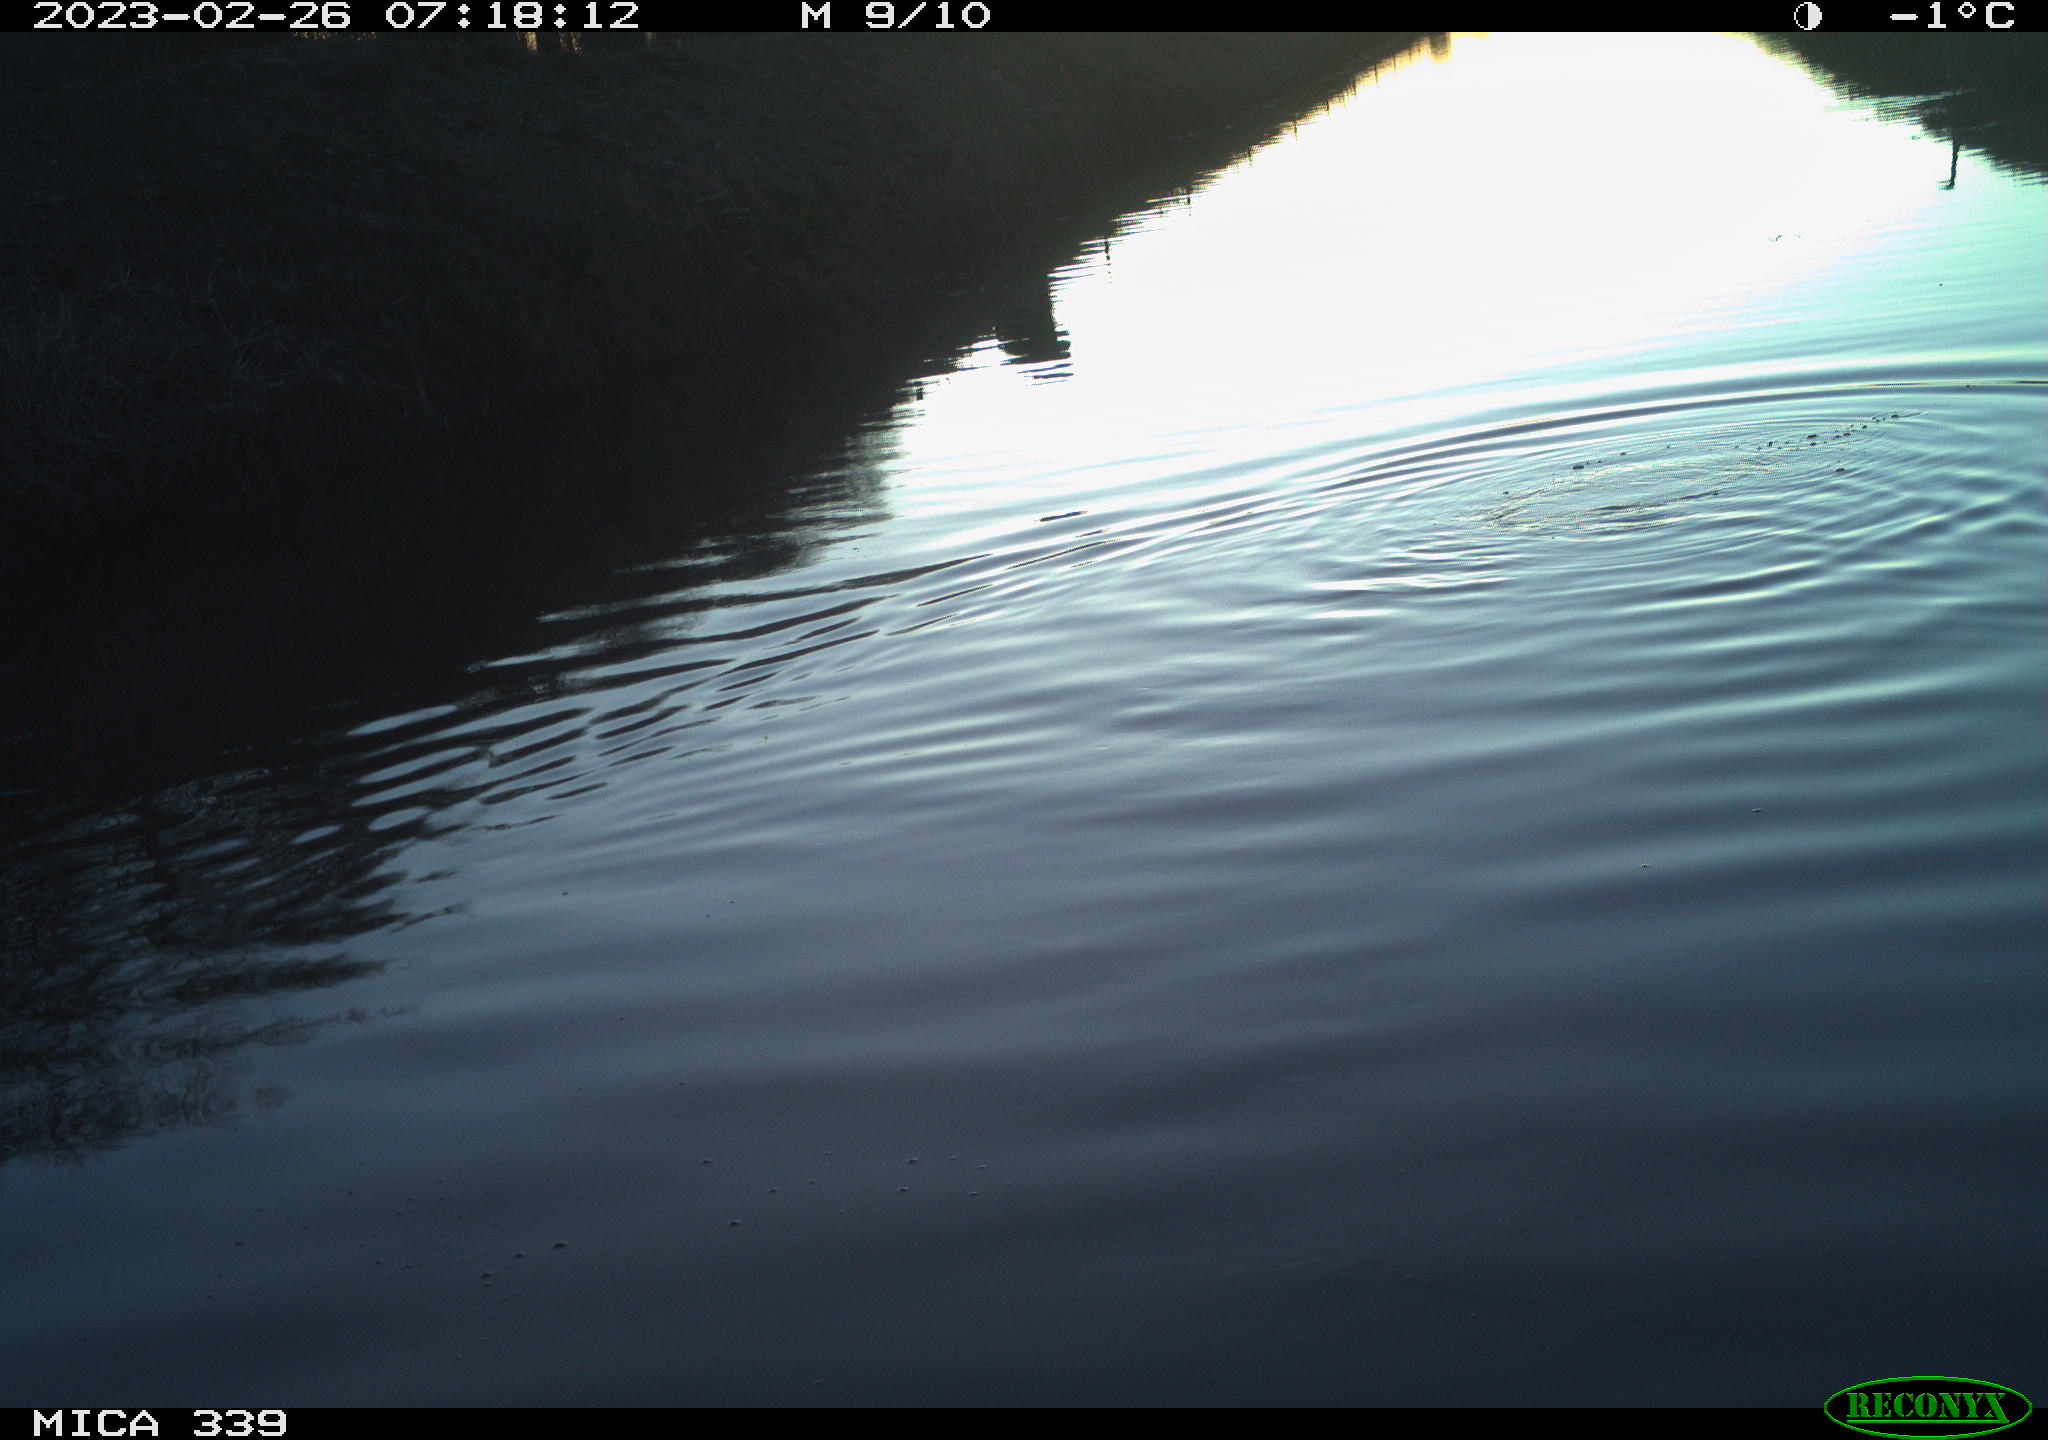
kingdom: Animalia
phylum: Chordata
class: Aves
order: Suliformes
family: Phalacrocoracidae
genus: Phalacrocorax
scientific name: Phalacrocorax carbo
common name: Great cormorant
